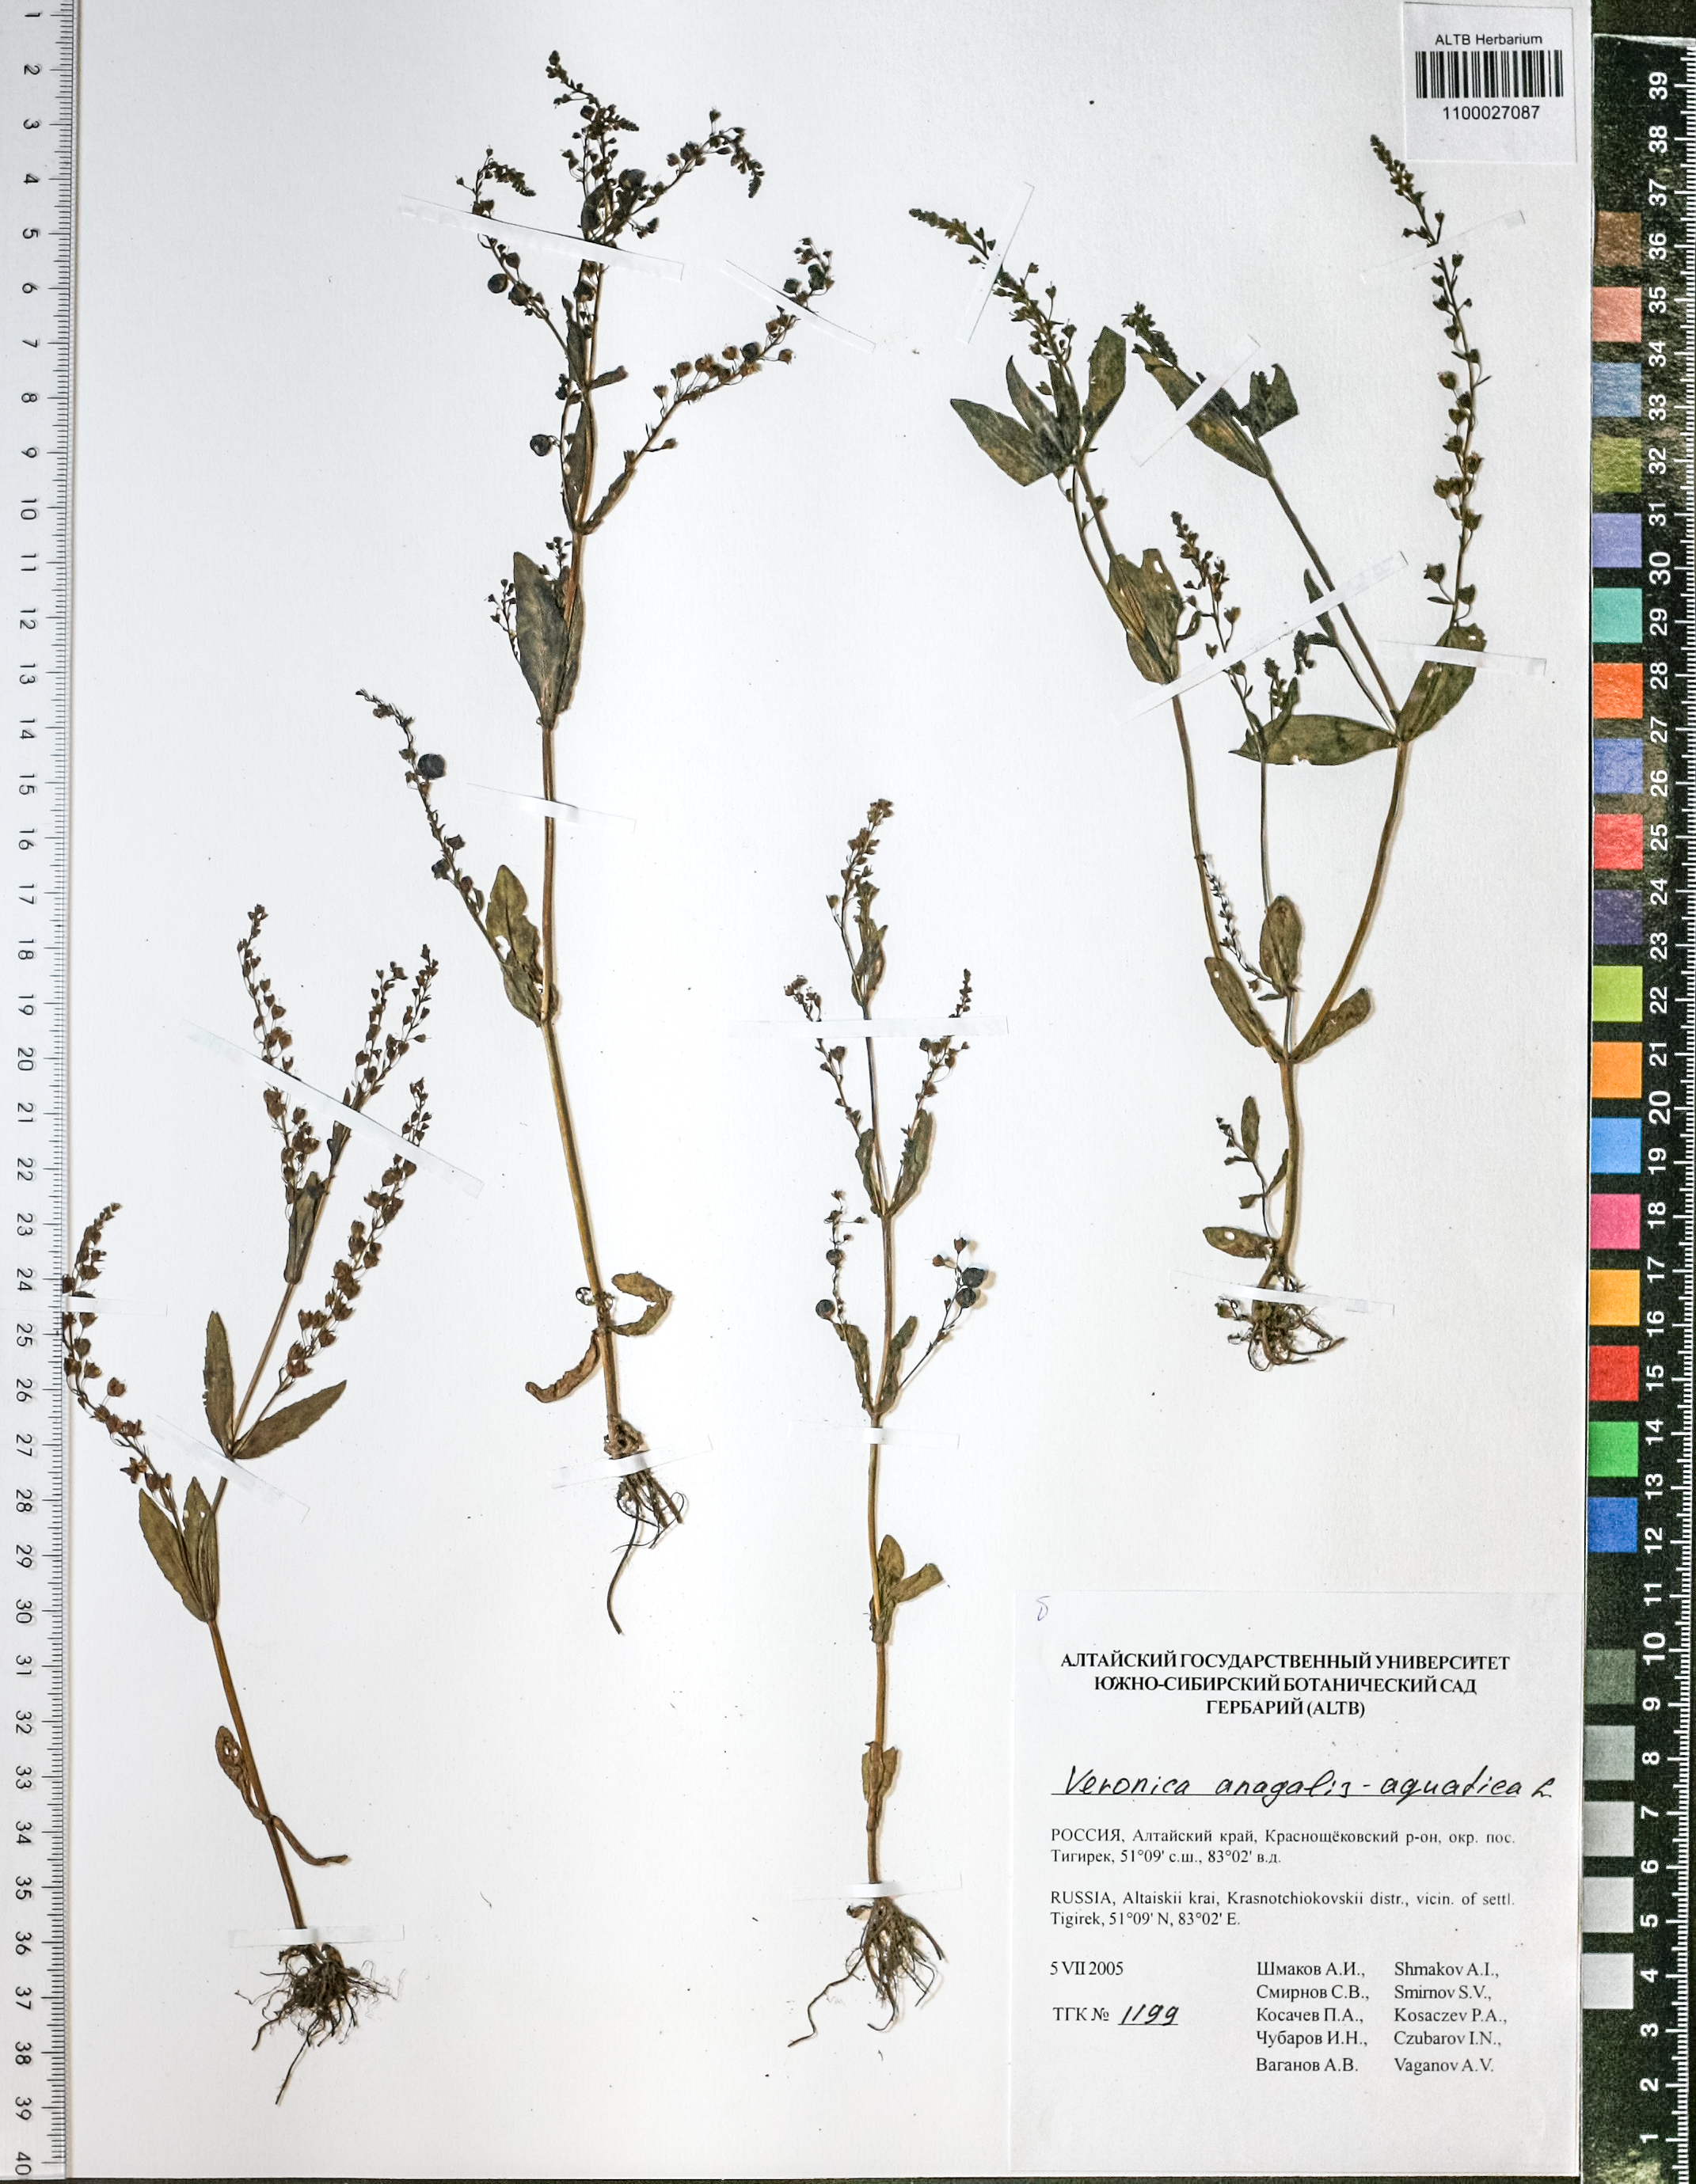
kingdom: Plantae
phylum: Tracheophyta
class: Magnoliopsida
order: Lamiales
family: Plantaginaceae
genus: Veronica
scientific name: Veronica anagallis-aquatica
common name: Water speedwell
